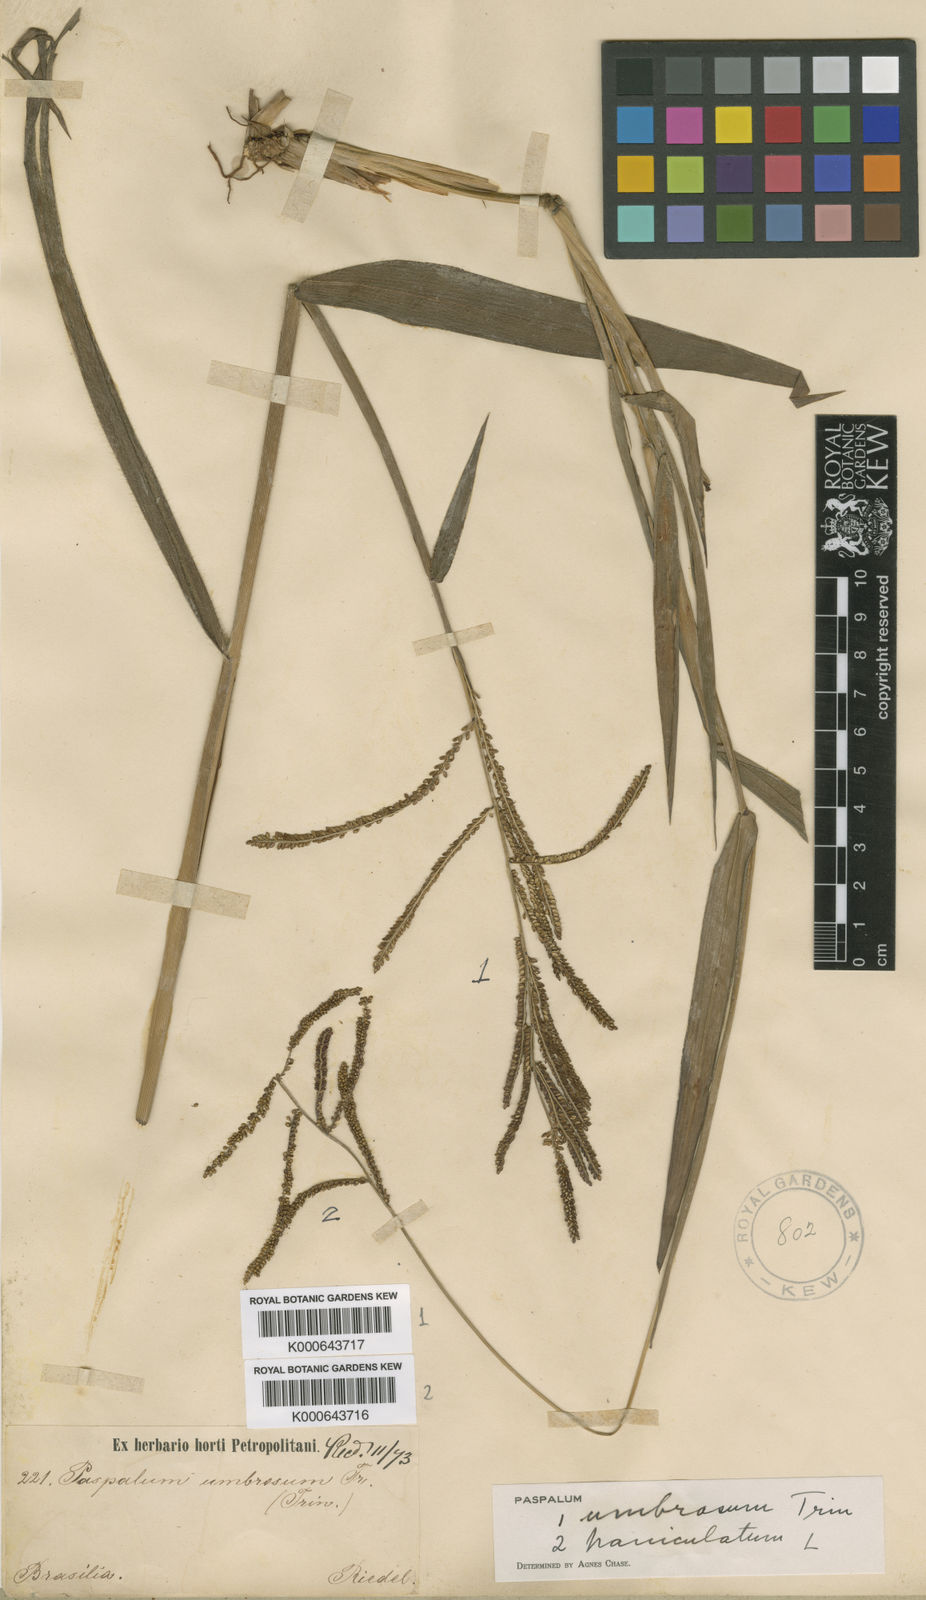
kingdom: Plantae
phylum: Tracheophyta
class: Liliopsida
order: Poales
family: Poaceae
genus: Paspalum
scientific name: Paspalum umbrosum
